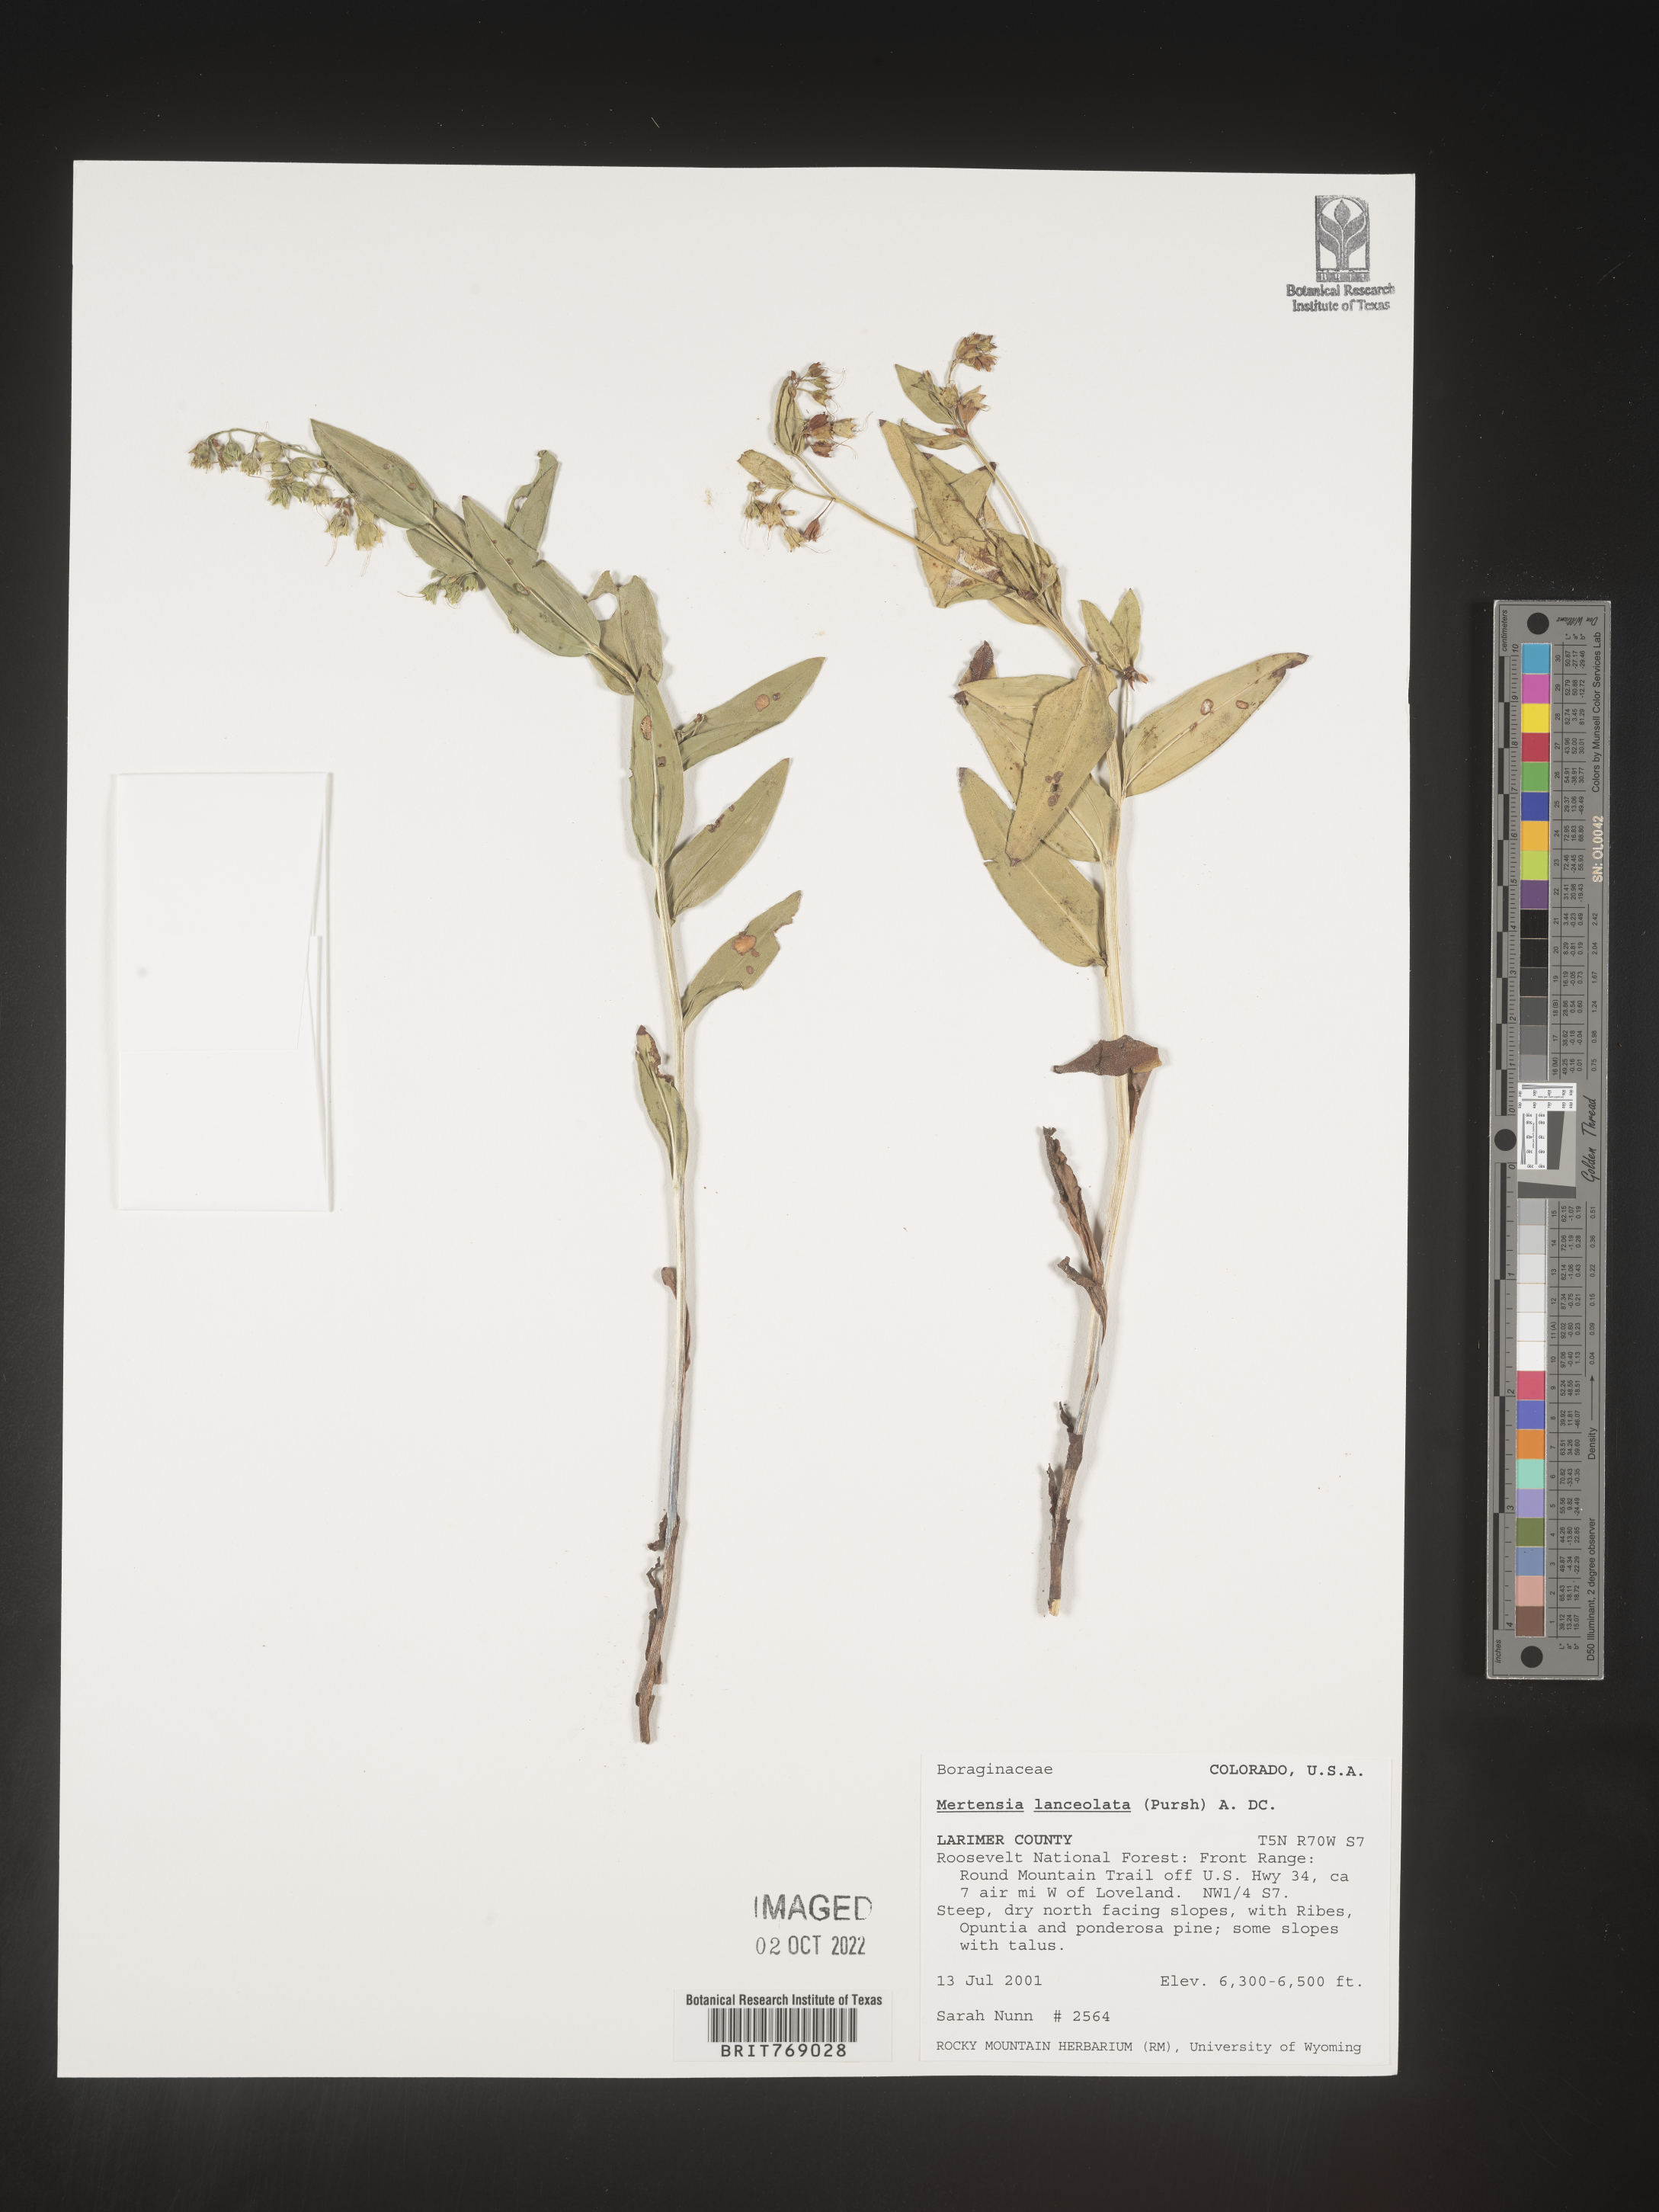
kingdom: Plantae
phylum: Tracheophyta
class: Magnoliopsida
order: Boraginales
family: Boraginaceae
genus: Mertensia
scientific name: Mertensia
